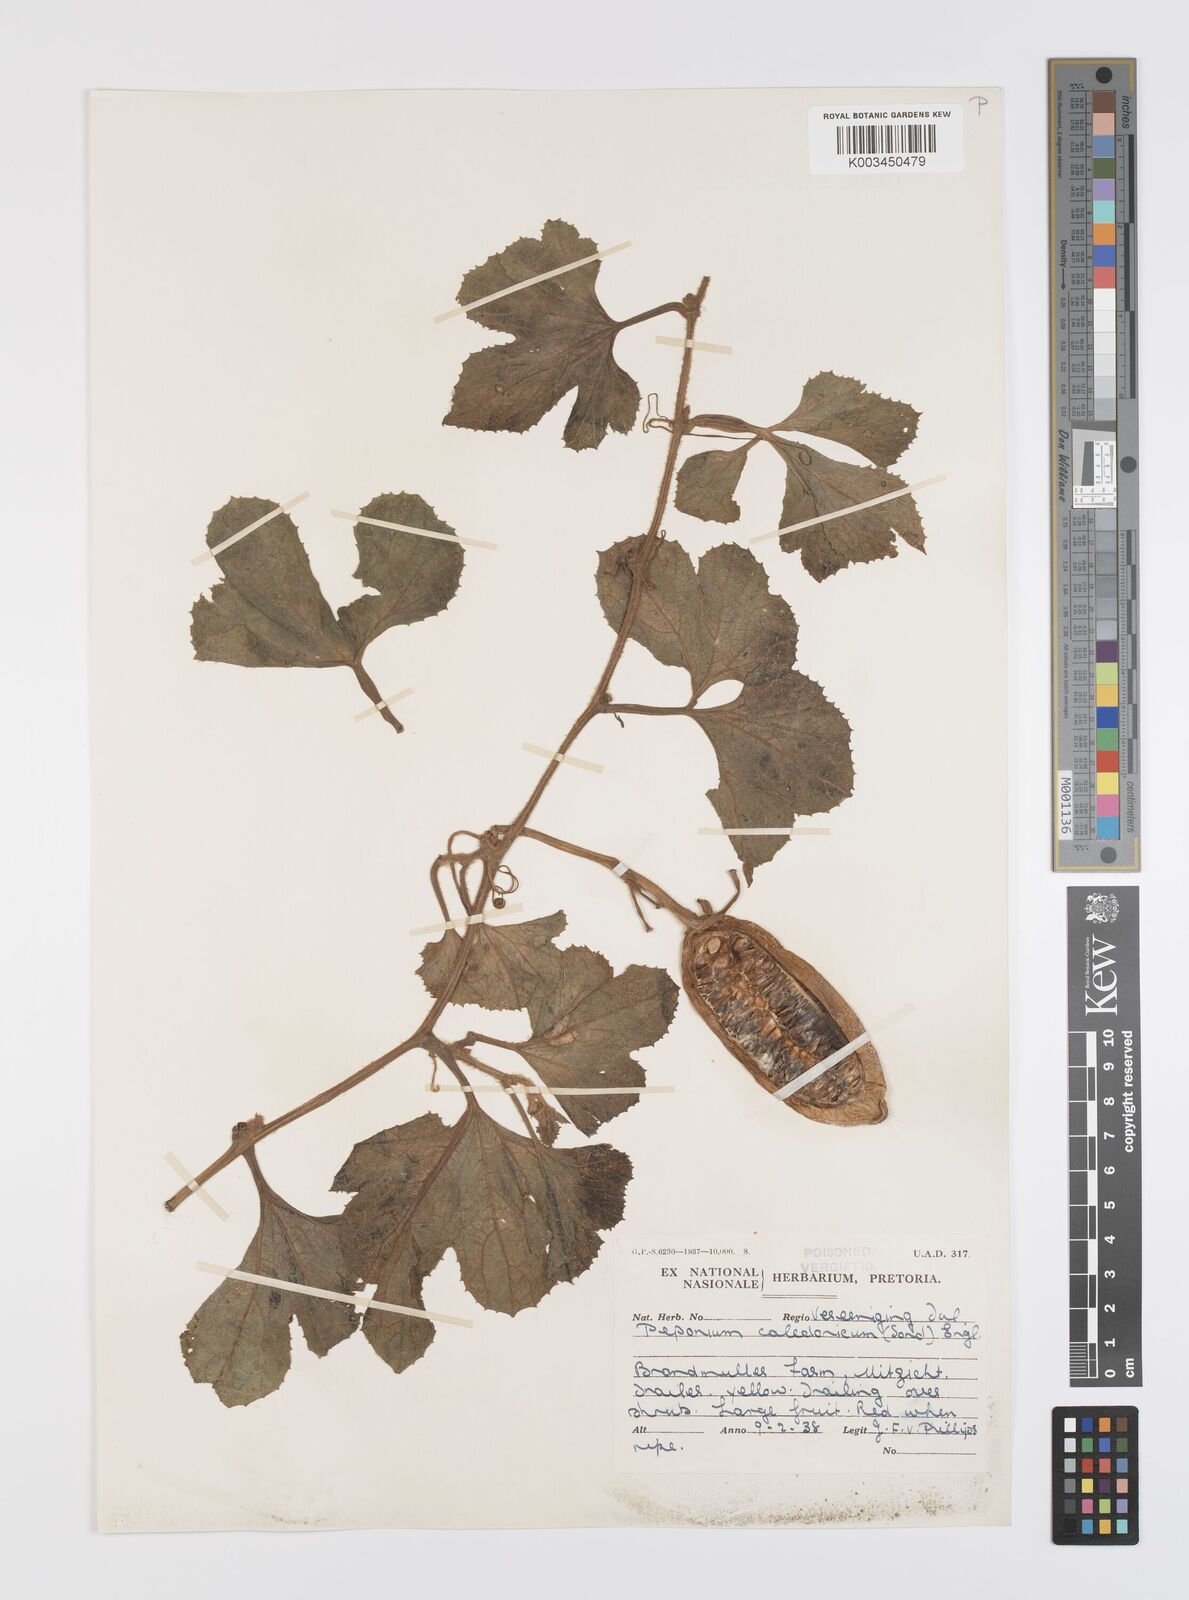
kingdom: Plantae
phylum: Tracheophyta
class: Magnoliopsida
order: Cucurbitales
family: Cucurbitaceae
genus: Peponium
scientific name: Peponium caledonicum
